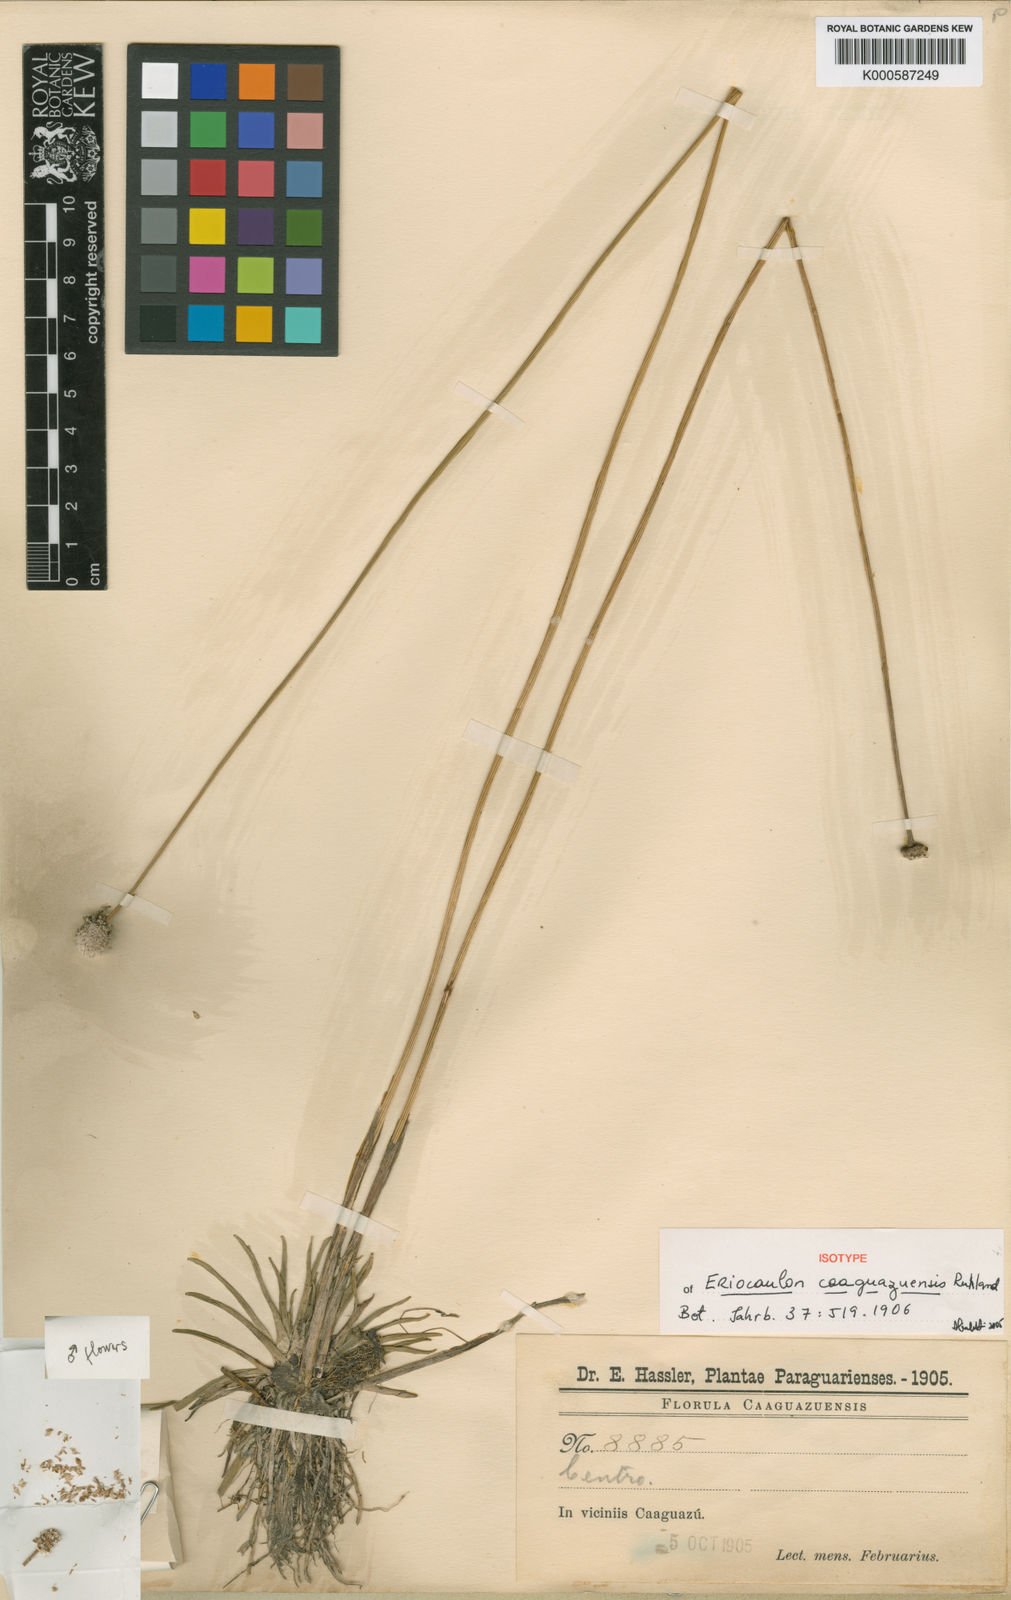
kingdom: Plantae
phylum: Tracheophyta
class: Liliopsida
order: Poales
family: Eriocaulaceae
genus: Eriocaulon
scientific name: Eriocaulon
